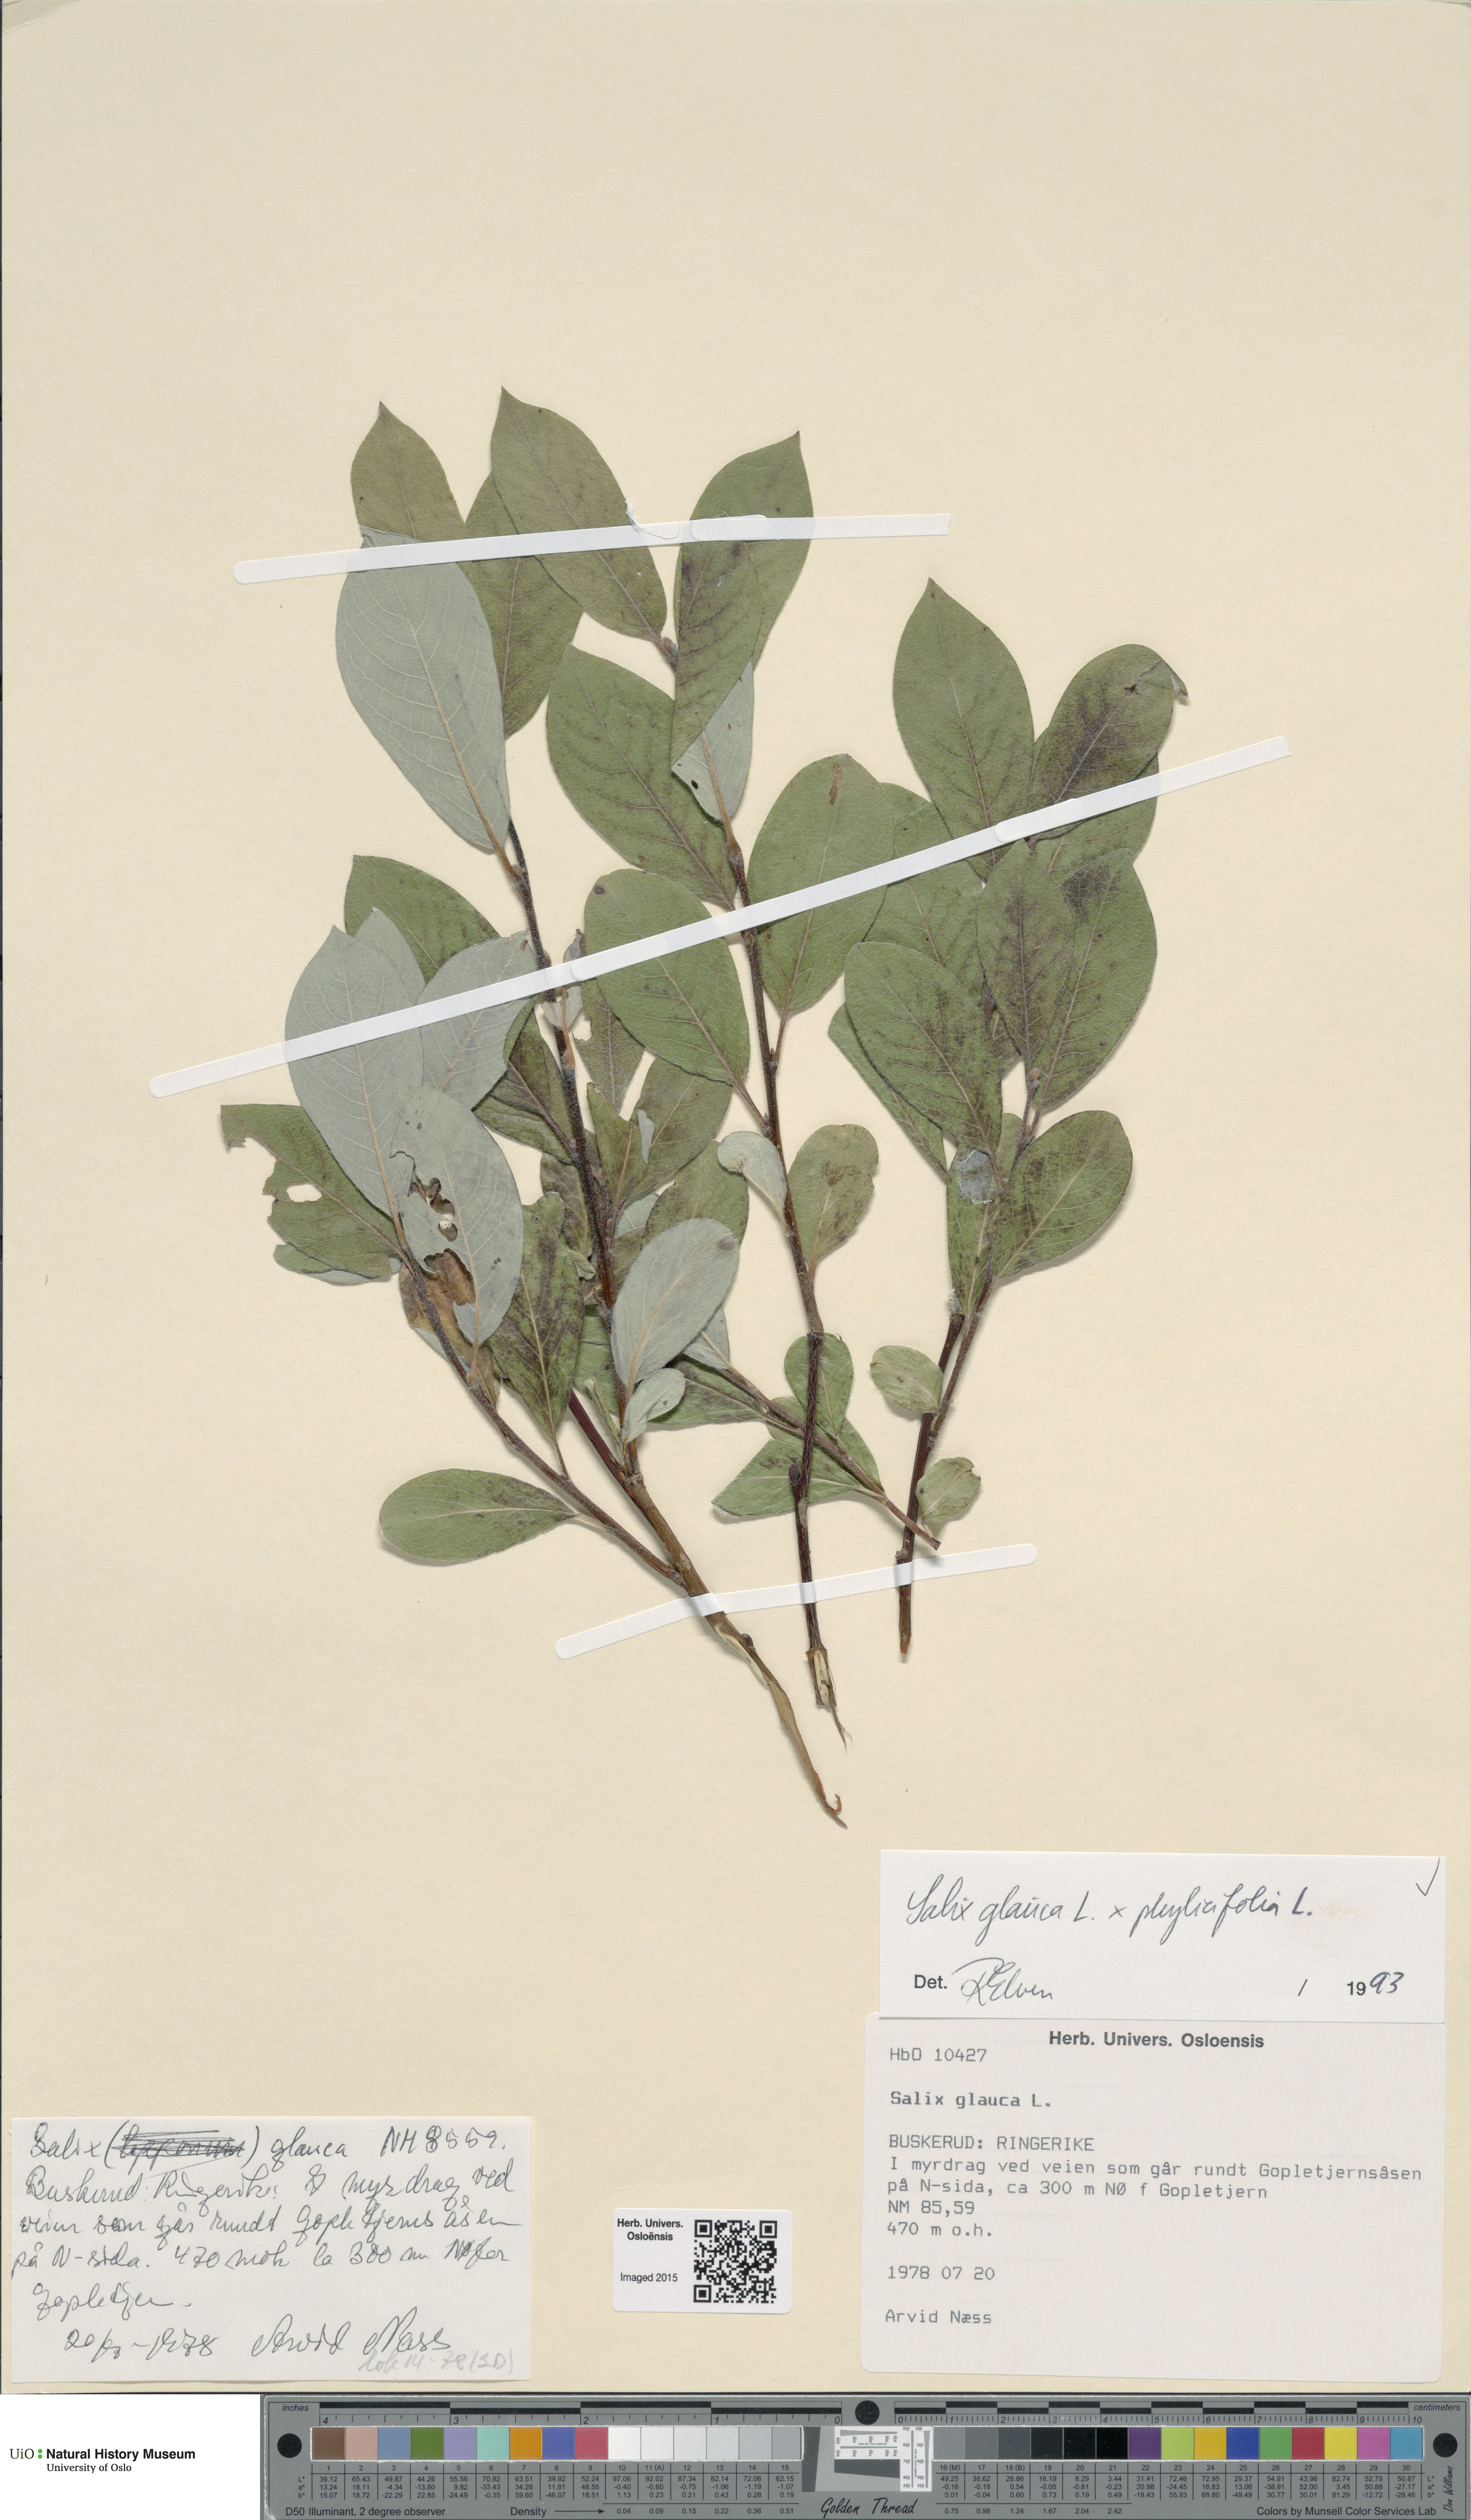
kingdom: Plantae
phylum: Tracheophyta
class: Magnoliopsida
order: Malpighiales
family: Salicaceae
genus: Salix
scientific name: Salix
